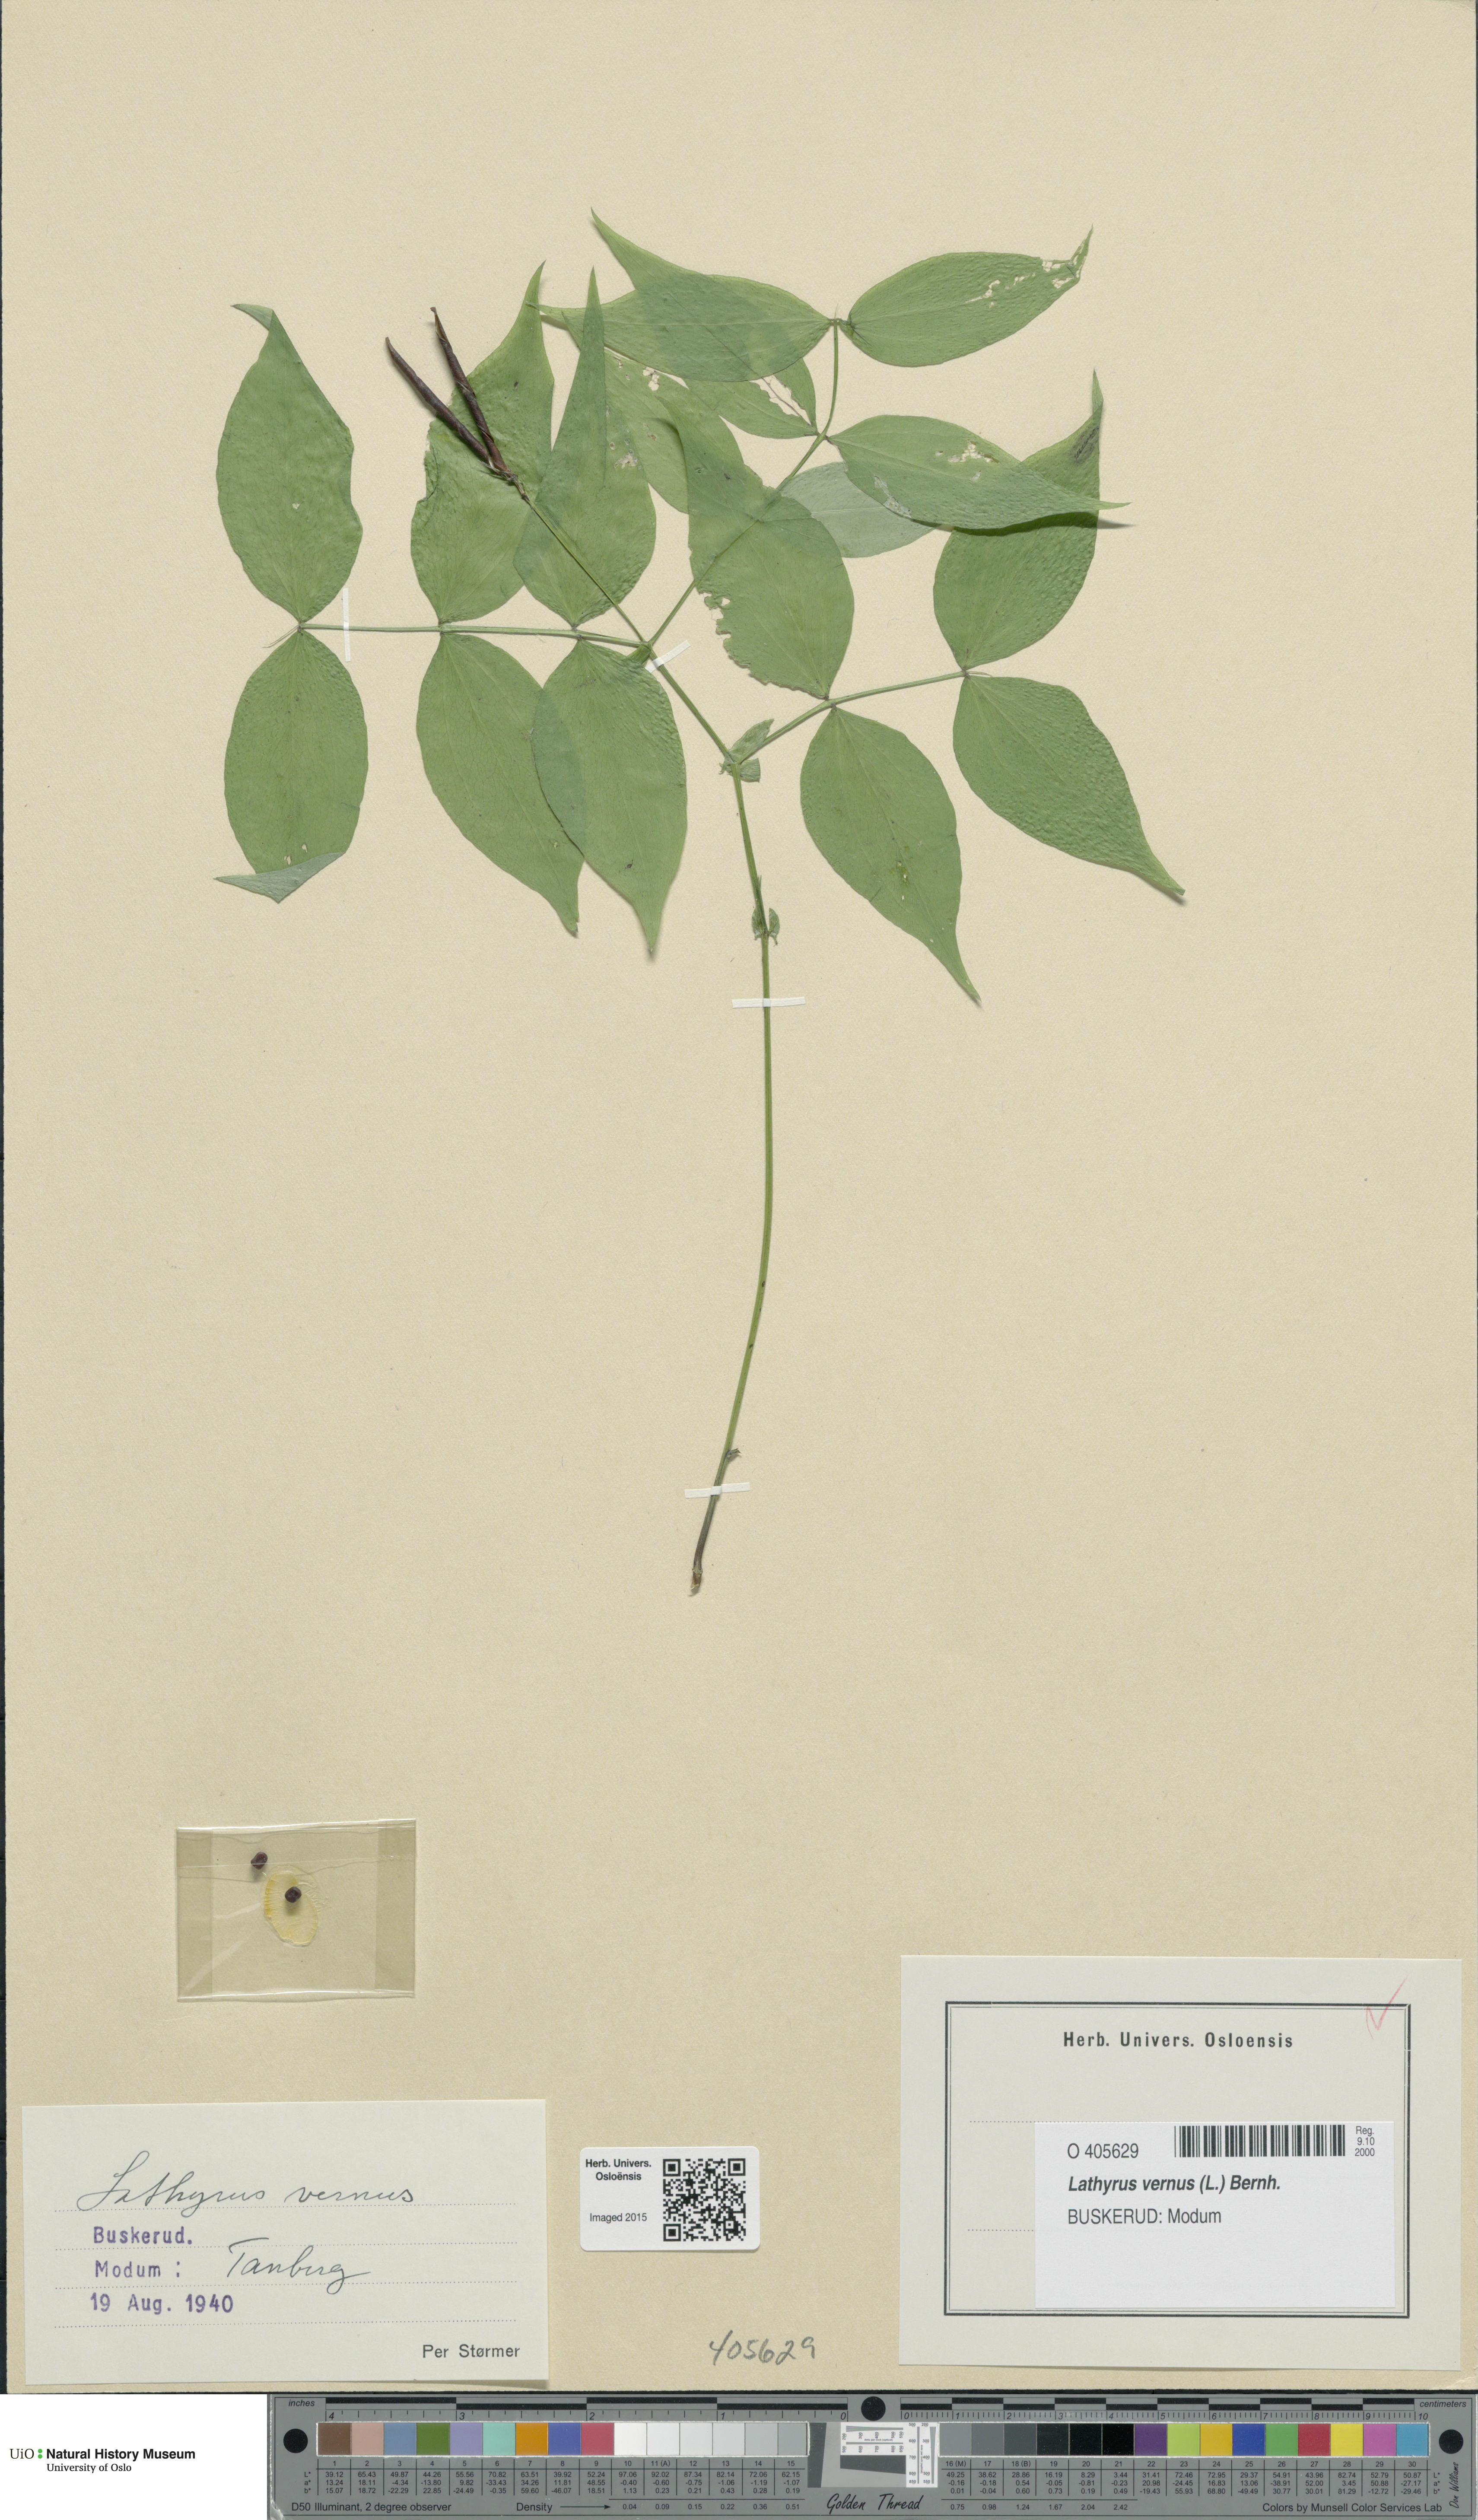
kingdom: Plantae
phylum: Tracheophyta
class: Magnoliopsida
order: Fabales
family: Fabaceae
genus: Lathyrus
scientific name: Lathyrus vernus
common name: Spring pea
